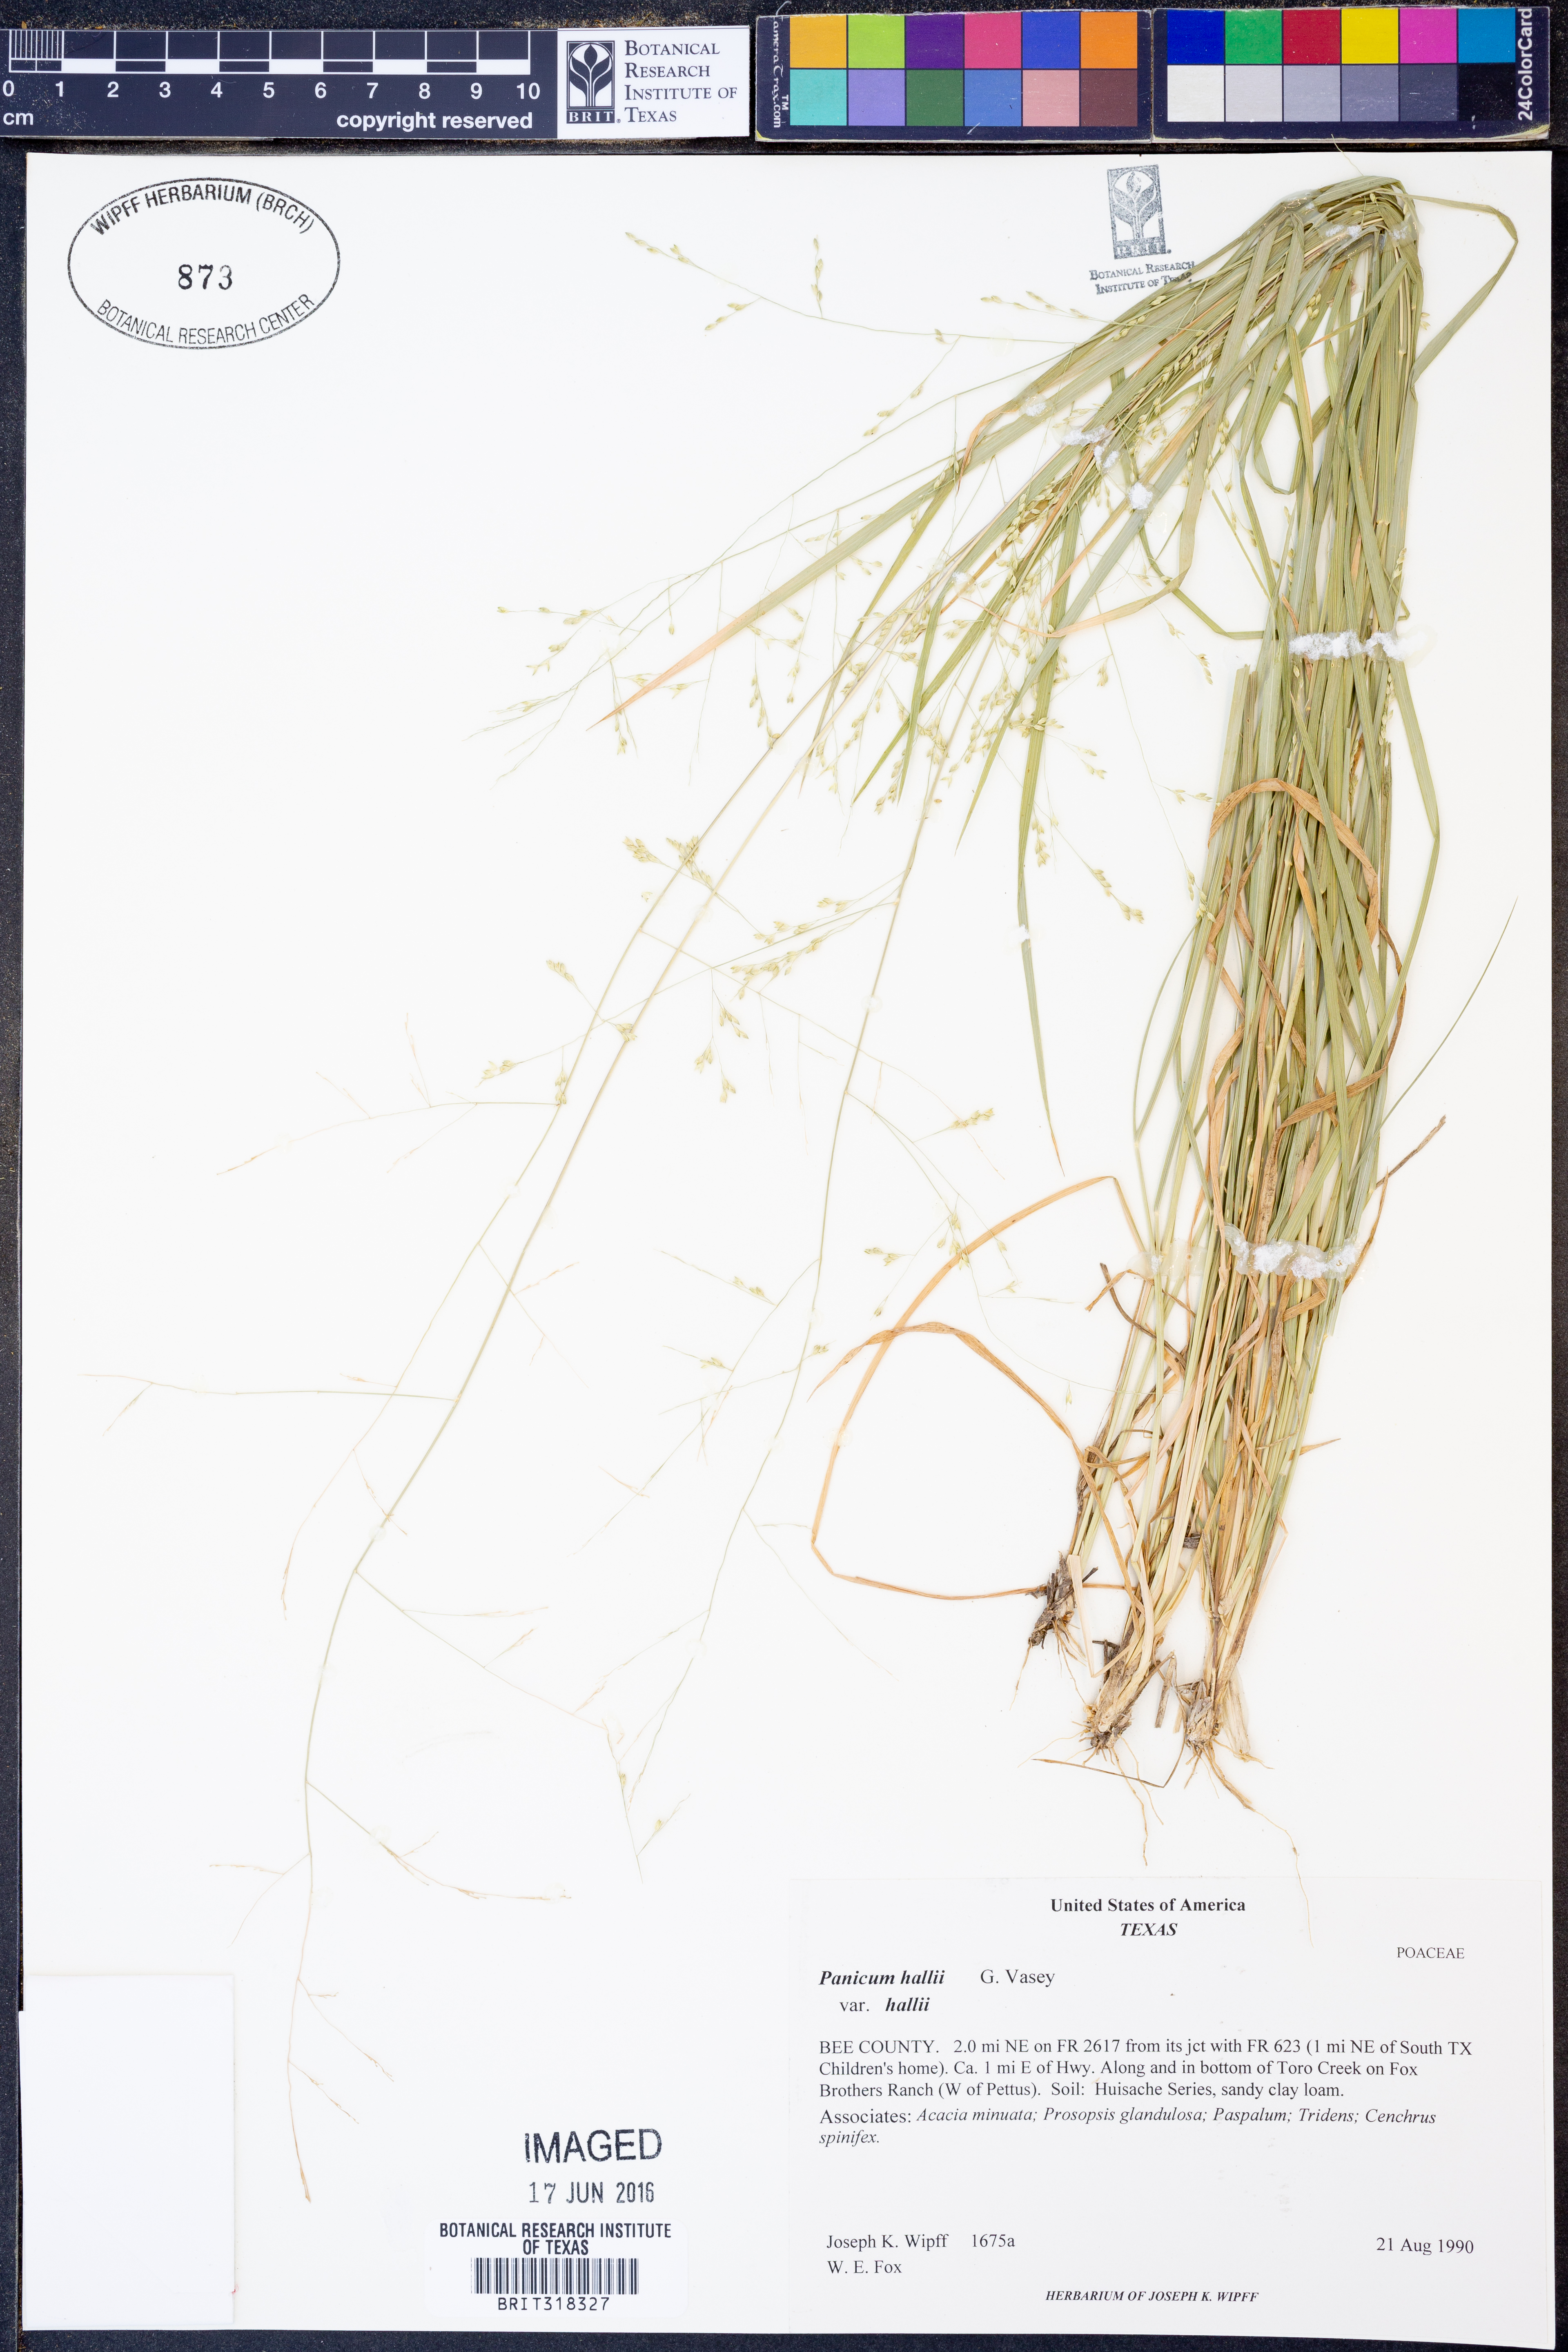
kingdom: Plantae
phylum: Tracheophyta
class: Liliopsida
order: Poales
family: Poaceae
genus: Panicum
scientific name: Panicum hallii
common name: Hall's witchgrass
